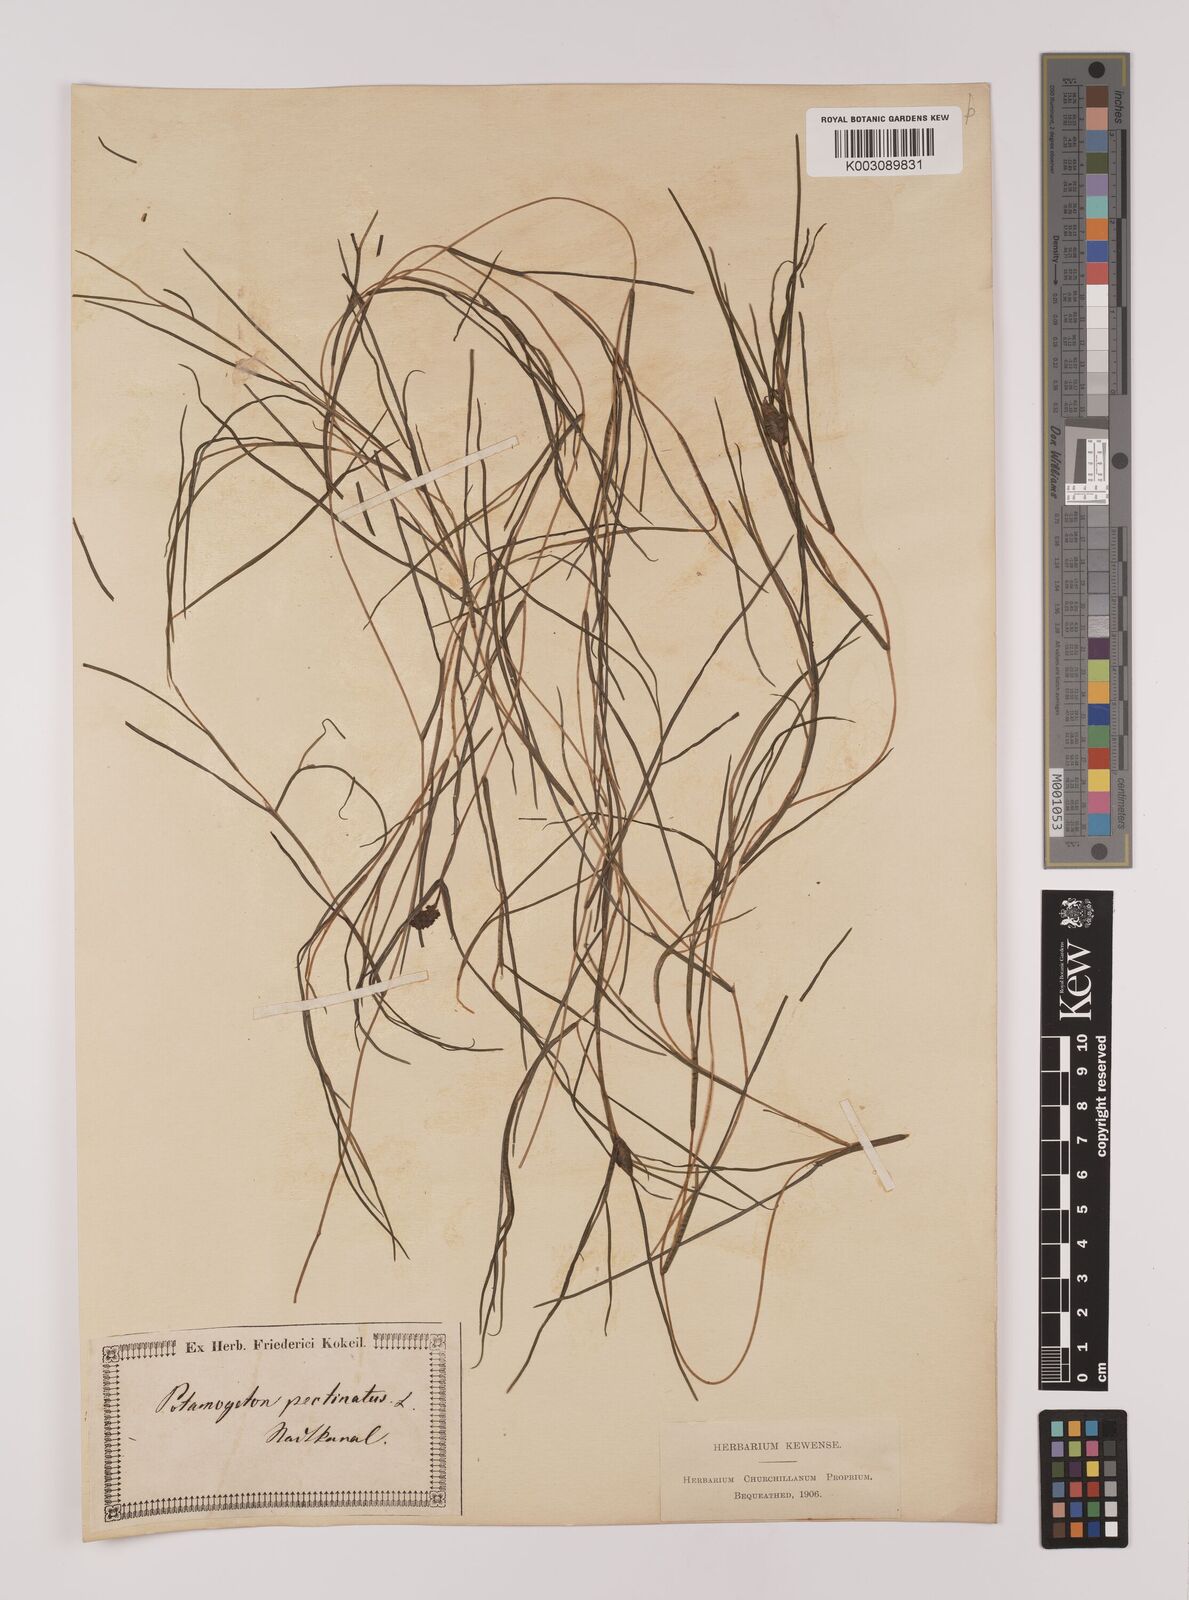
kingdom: Plantae
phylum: Tracheophyta
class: Liliopsida
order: Alismatales
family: Potamogetonaceae
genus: Stuckenia
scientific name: Stuckenia pectinata
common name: Sago pondweed
